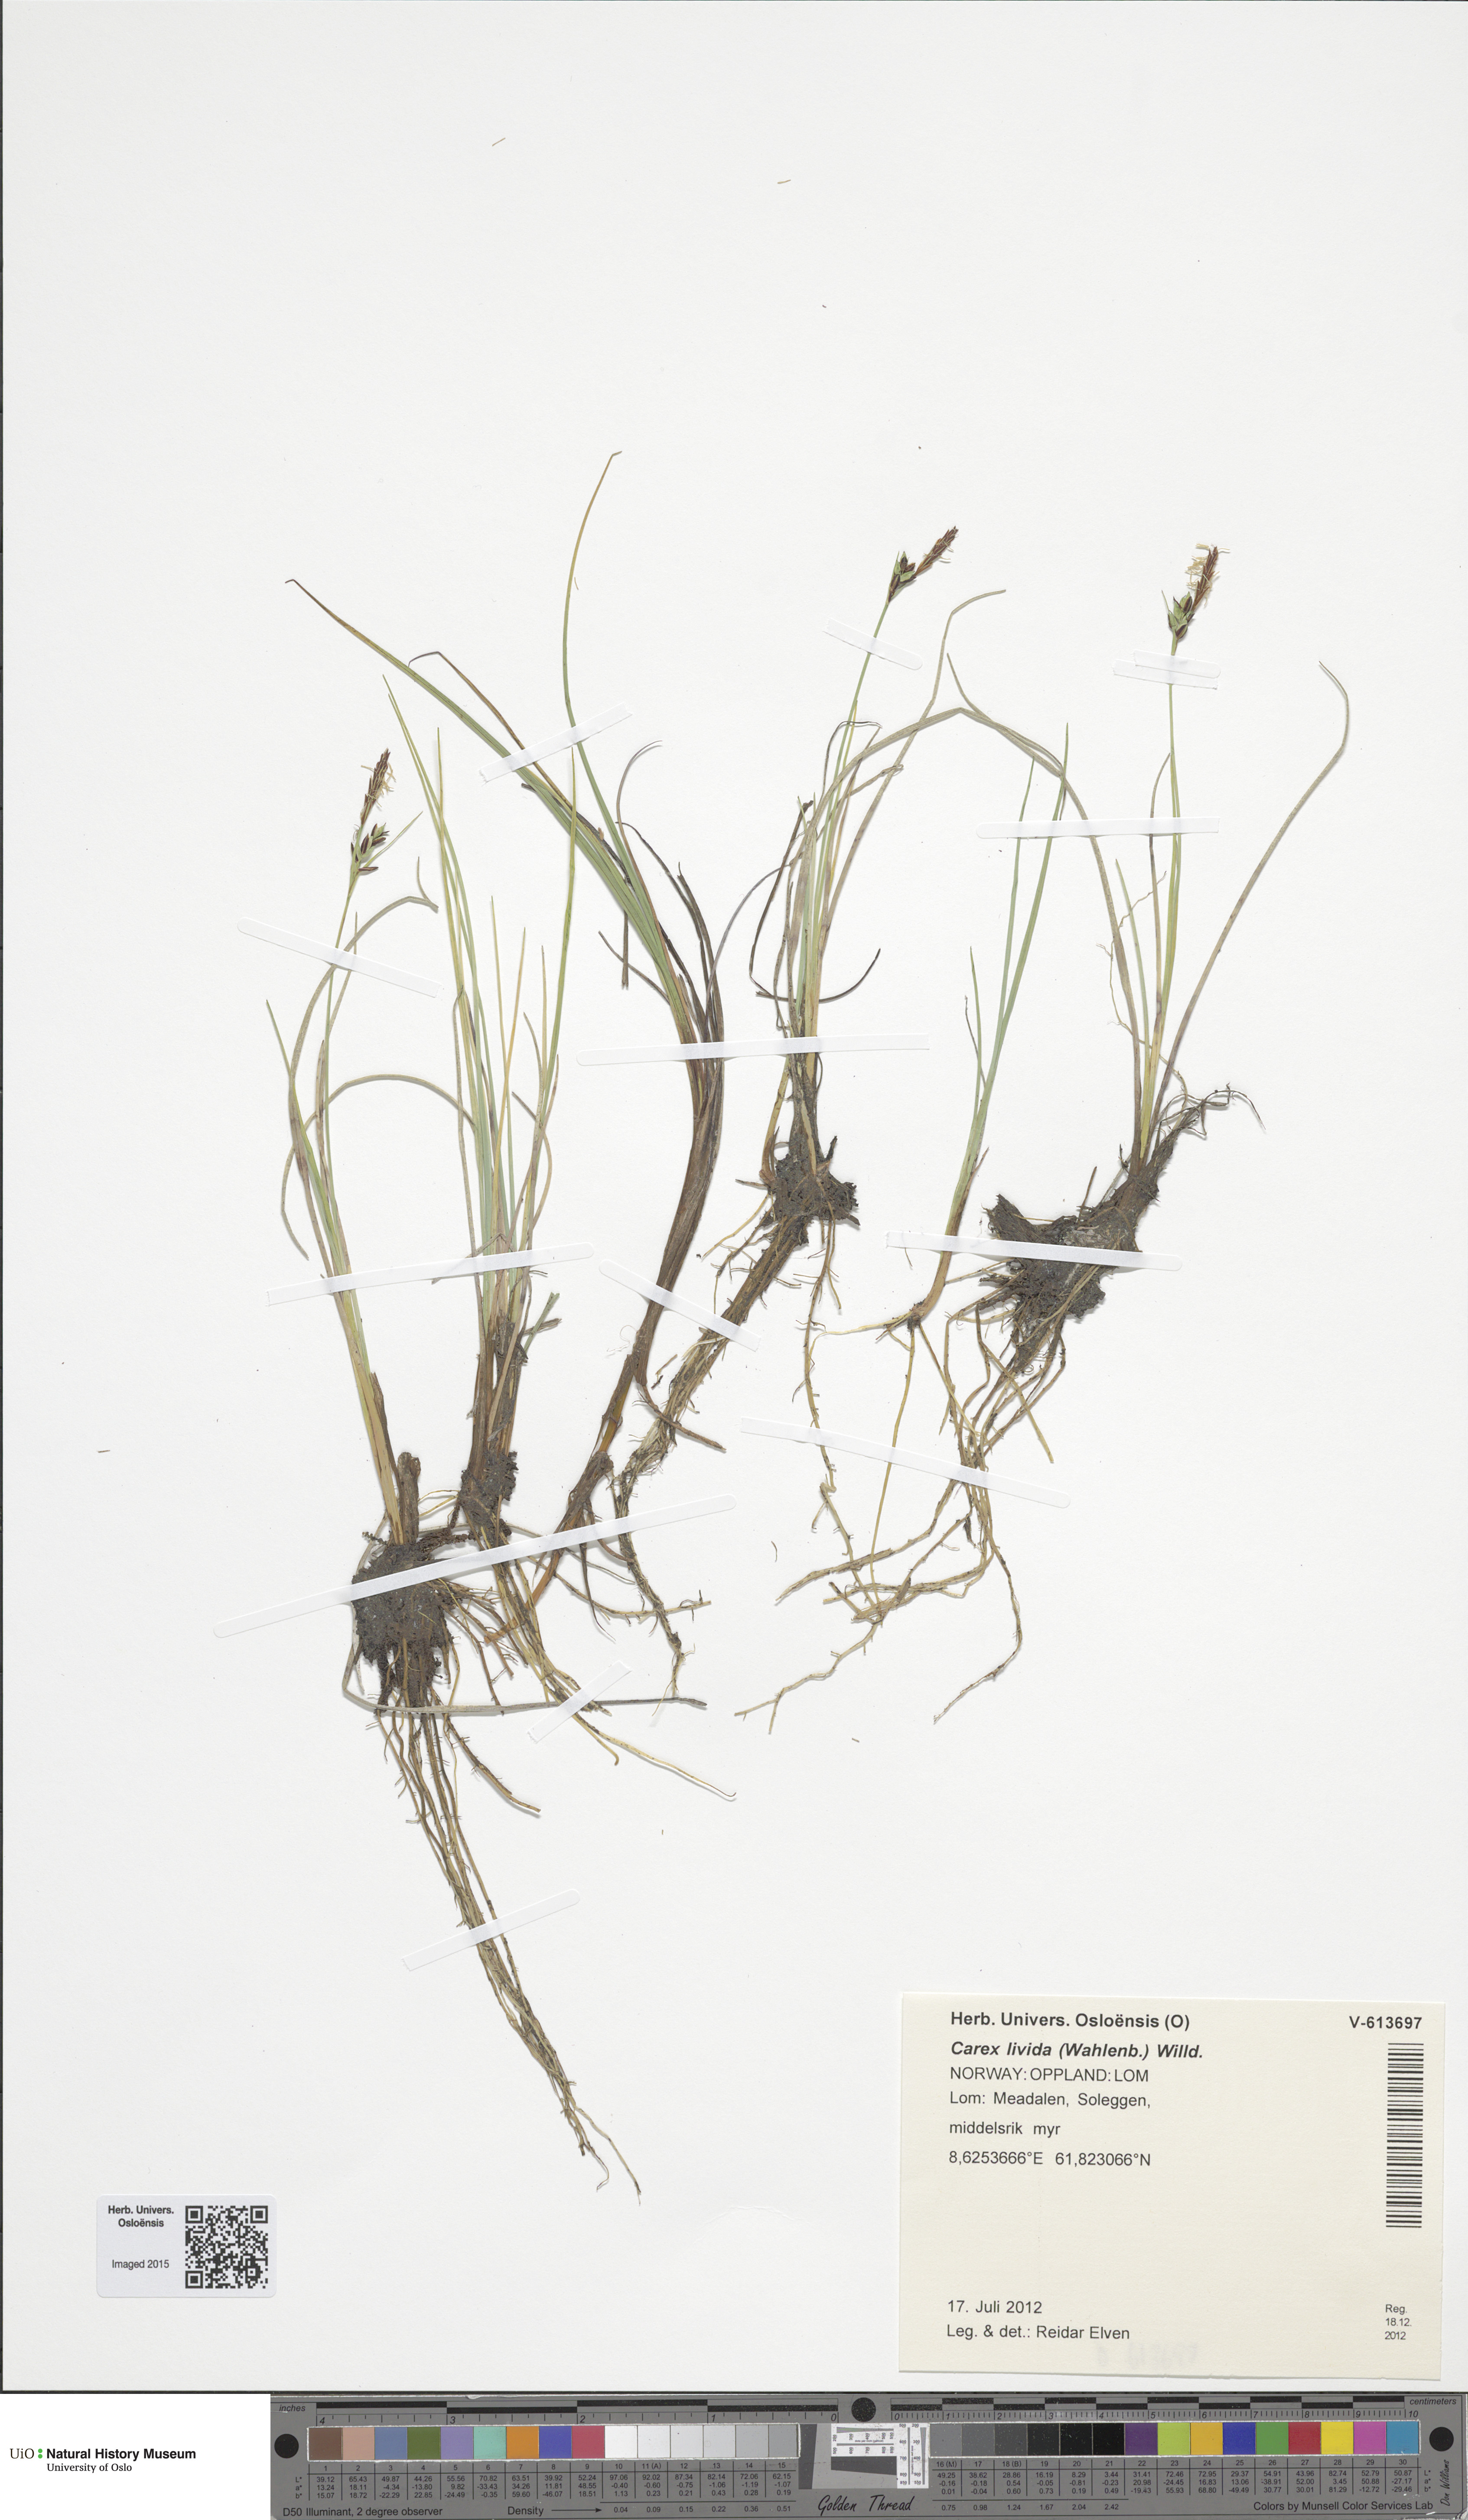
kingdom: Plantae
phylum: Tracheophyta
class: Liliopsida
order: Poales
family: Cyperaceae
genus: Carex
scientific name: Carex livida
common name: Livid sedge
